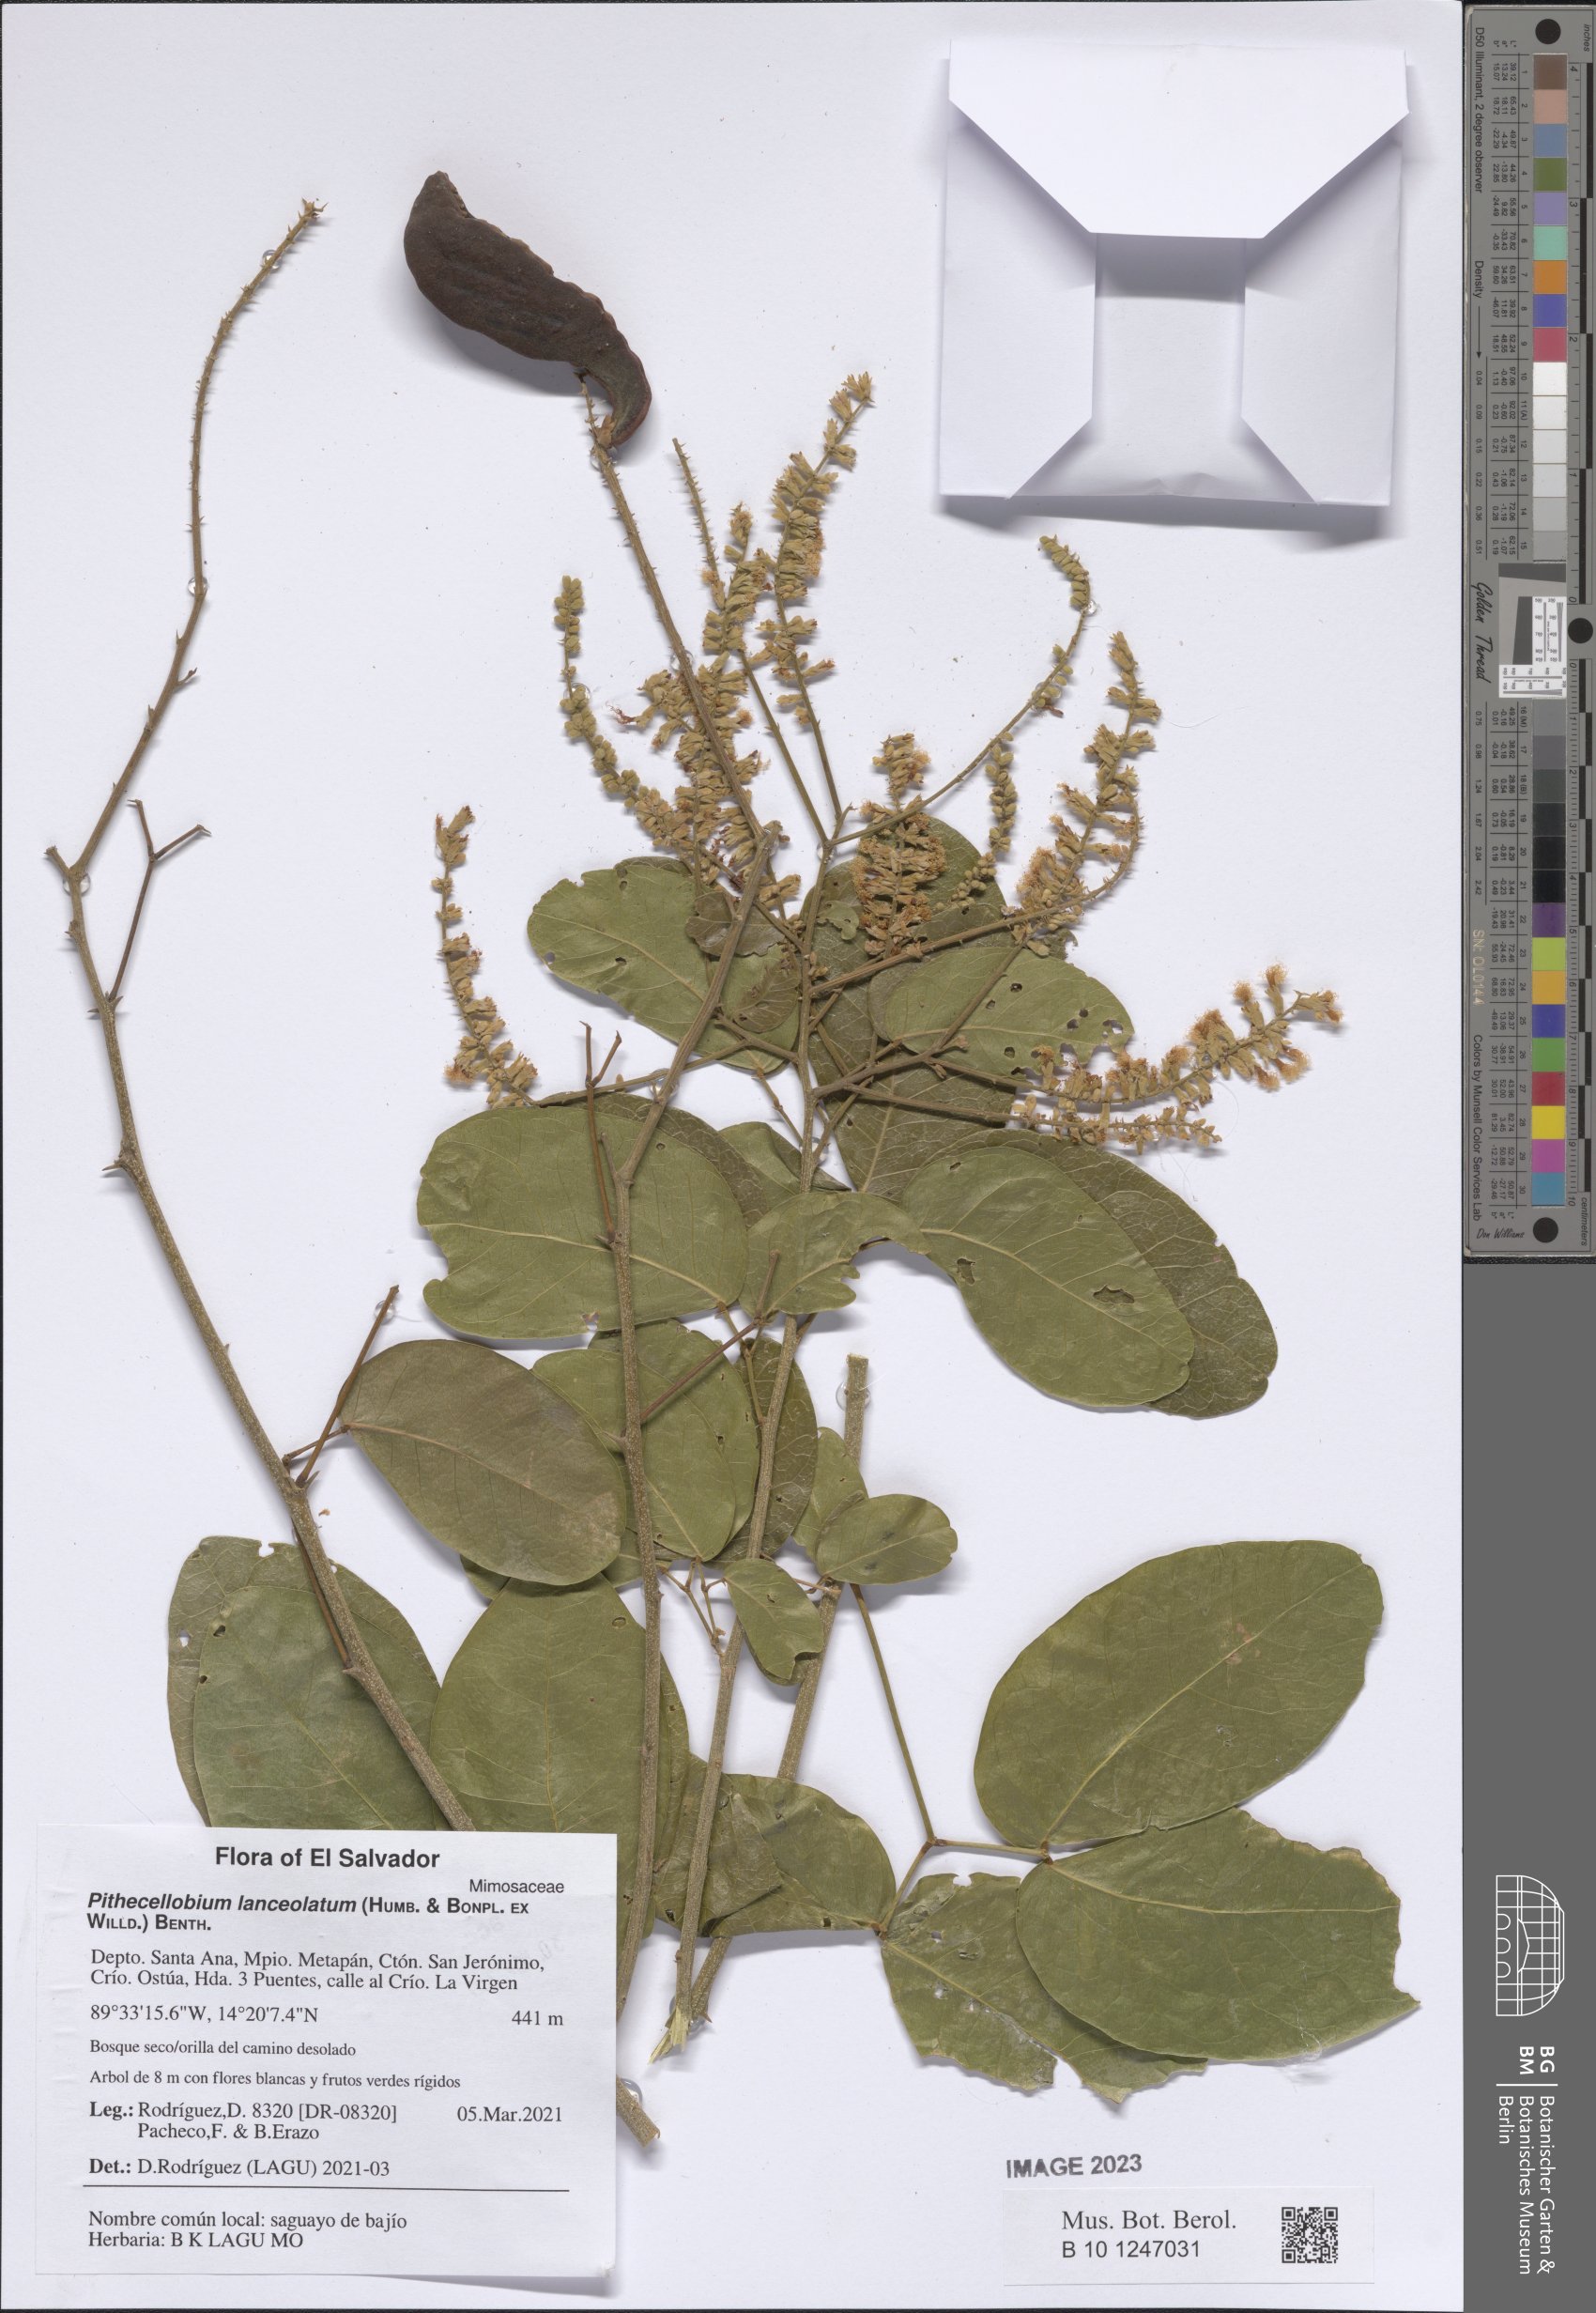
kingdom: Plantae
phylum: Tracheophyta
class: Magnoliopsida
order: Fabales
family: Fabaceae
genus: Pithecellobium
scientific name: Pithecellobium
